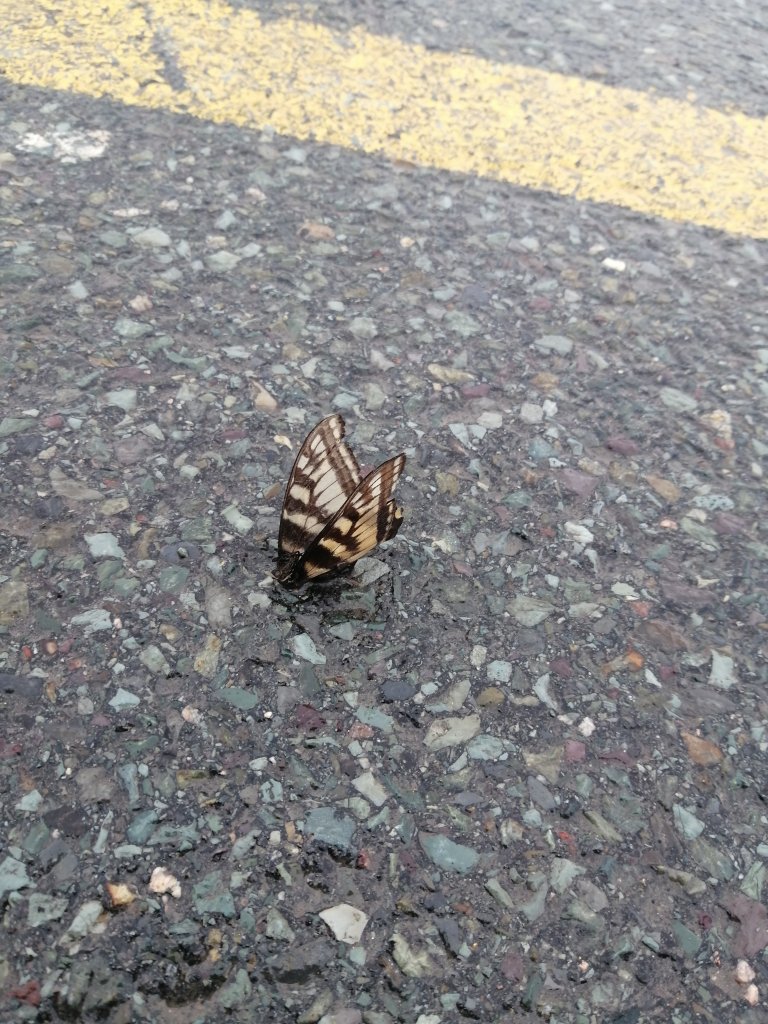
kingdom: Animalia
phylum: Arthropoda
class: Insecta
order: Lepidoptera
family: Papilionidae
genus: Pterourus
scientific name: Pterourus canadensis
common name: Canadian Tiger Swallowtail
